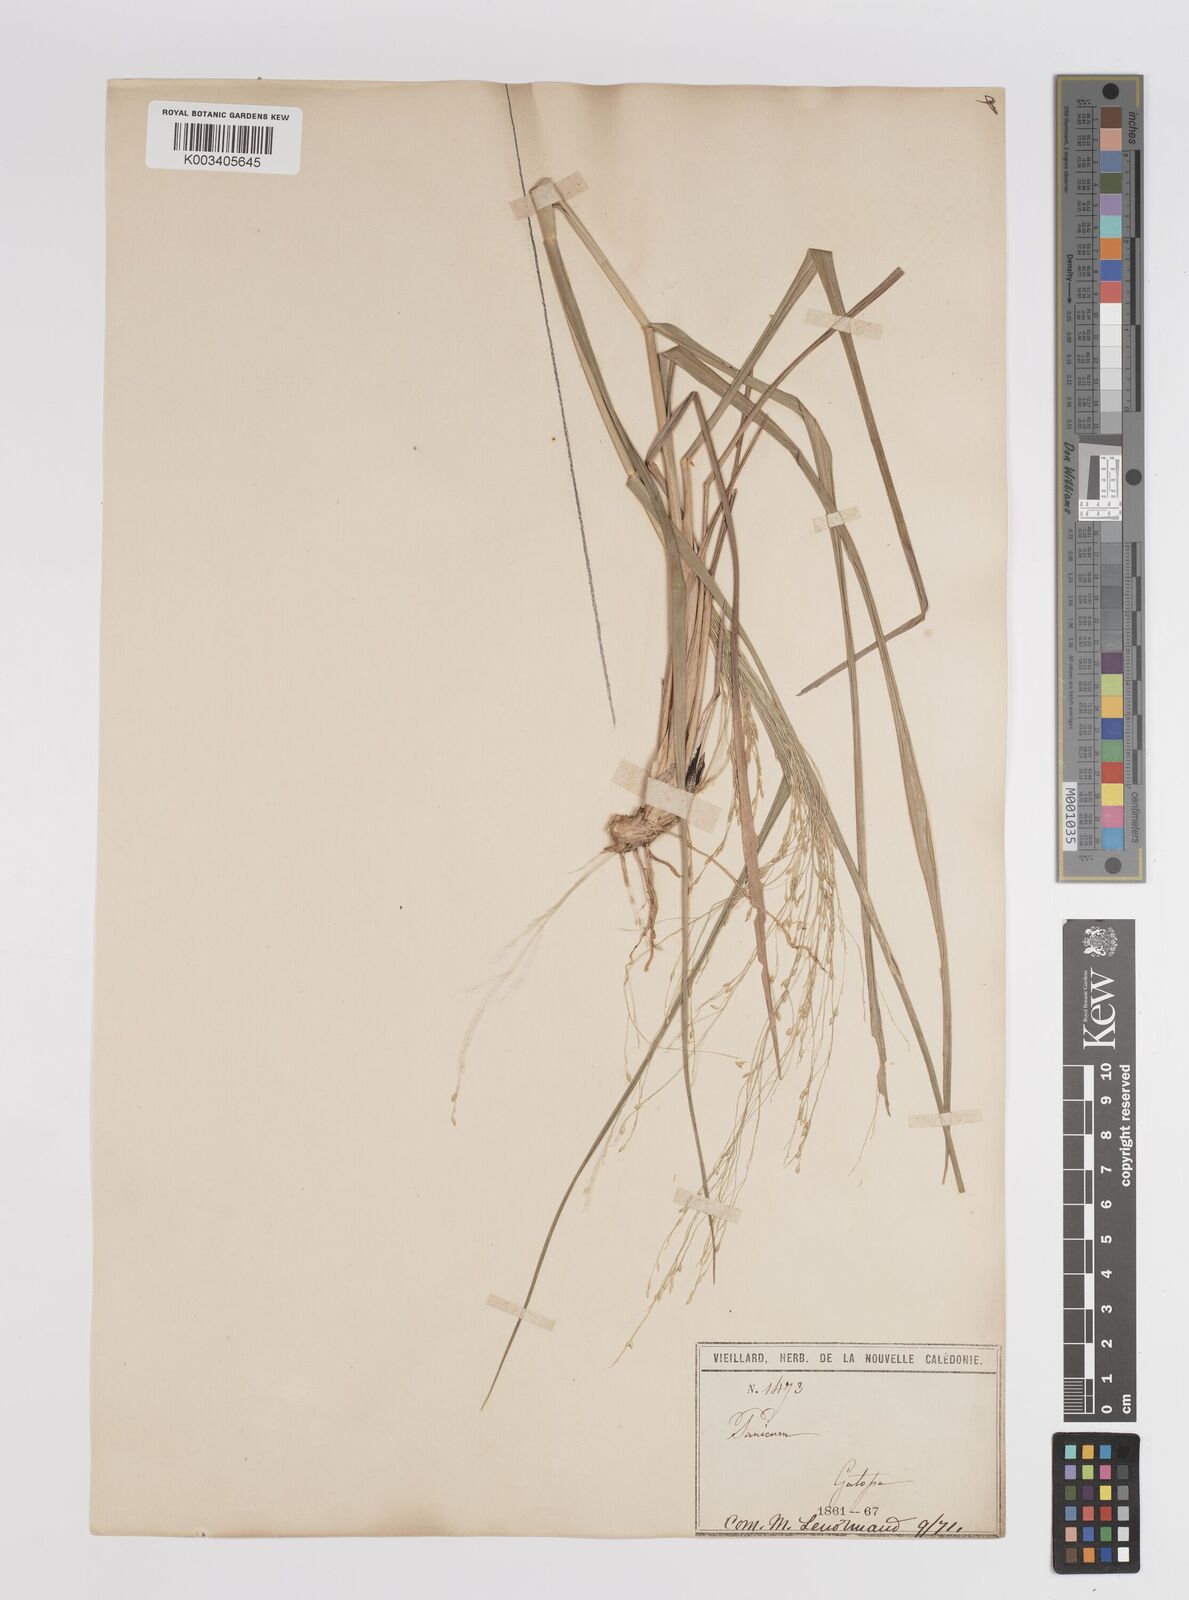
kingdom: Plantae
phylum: Tracheophyta
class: Liliopsida
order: Poales
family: Poaceae
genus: Panicum
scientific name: Panicum decompositum
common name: Australian millet
